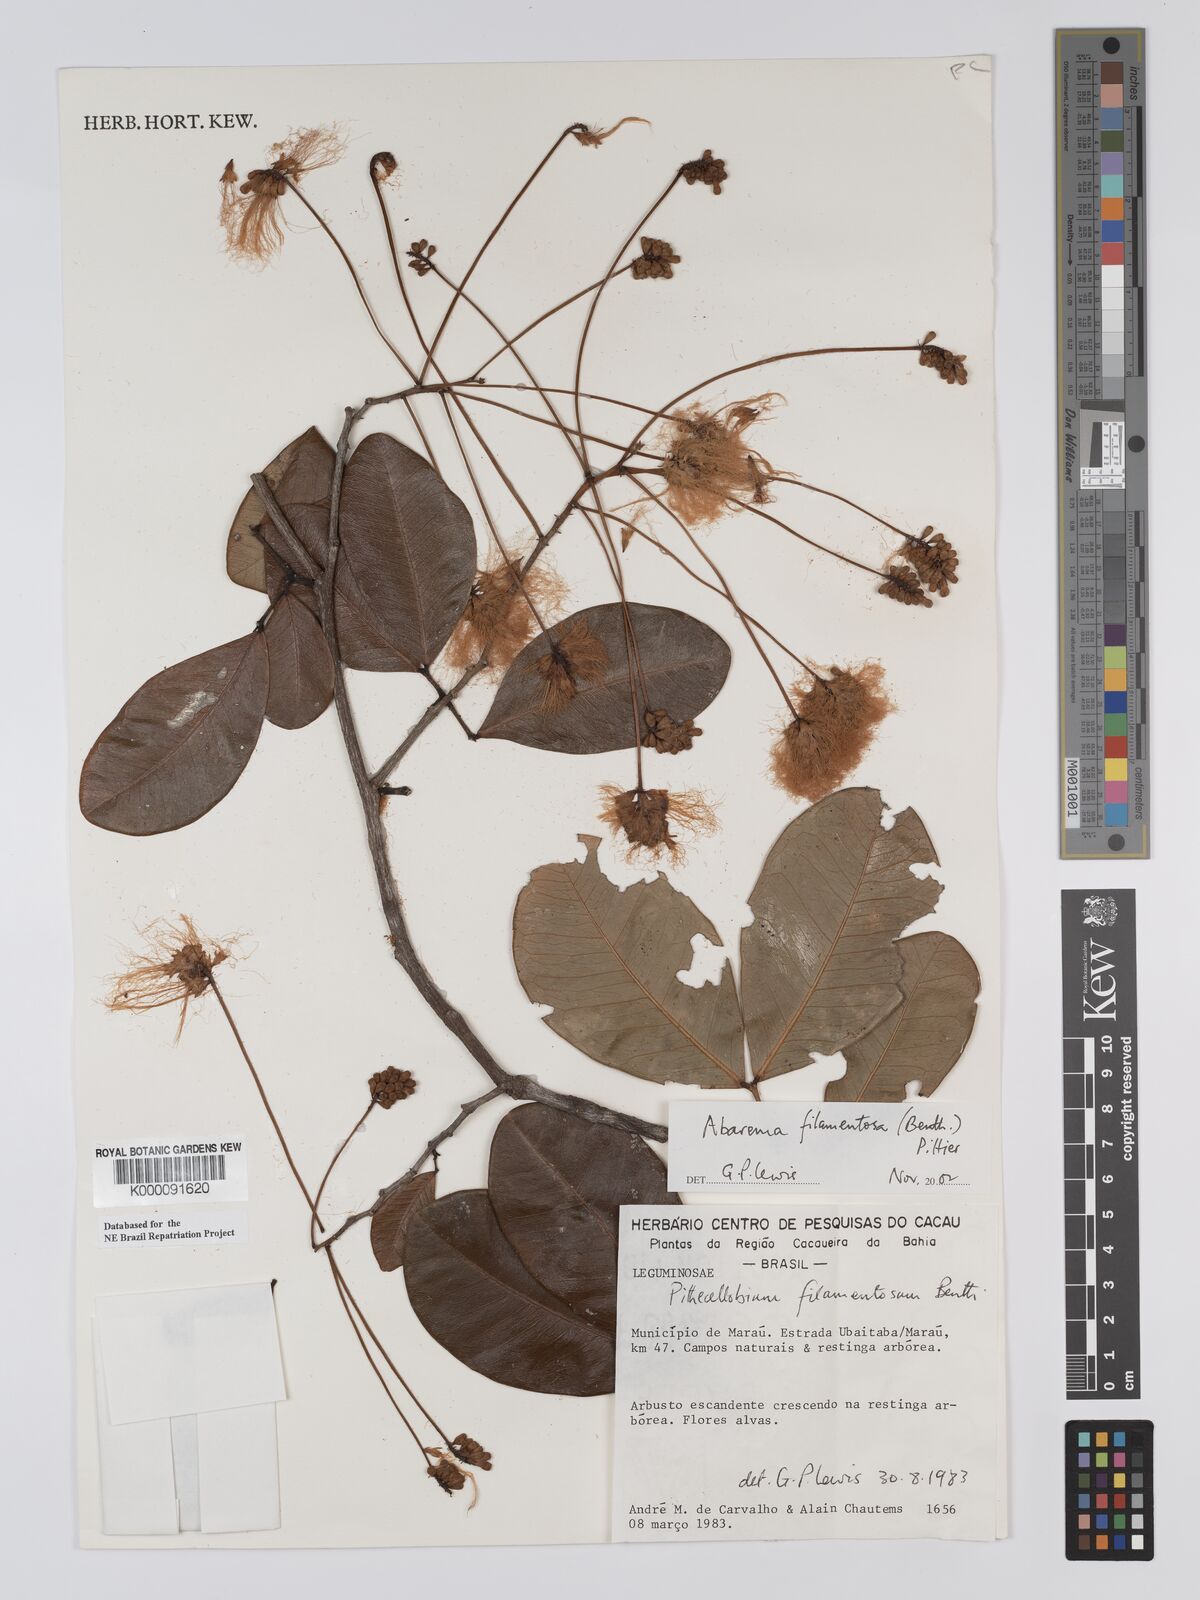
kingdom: Plantae
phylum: Tracheophyta
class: Magnoliopsida
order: Fabales
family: Fabaceae
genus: Jupunba
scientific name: Jupunba filamentosa
